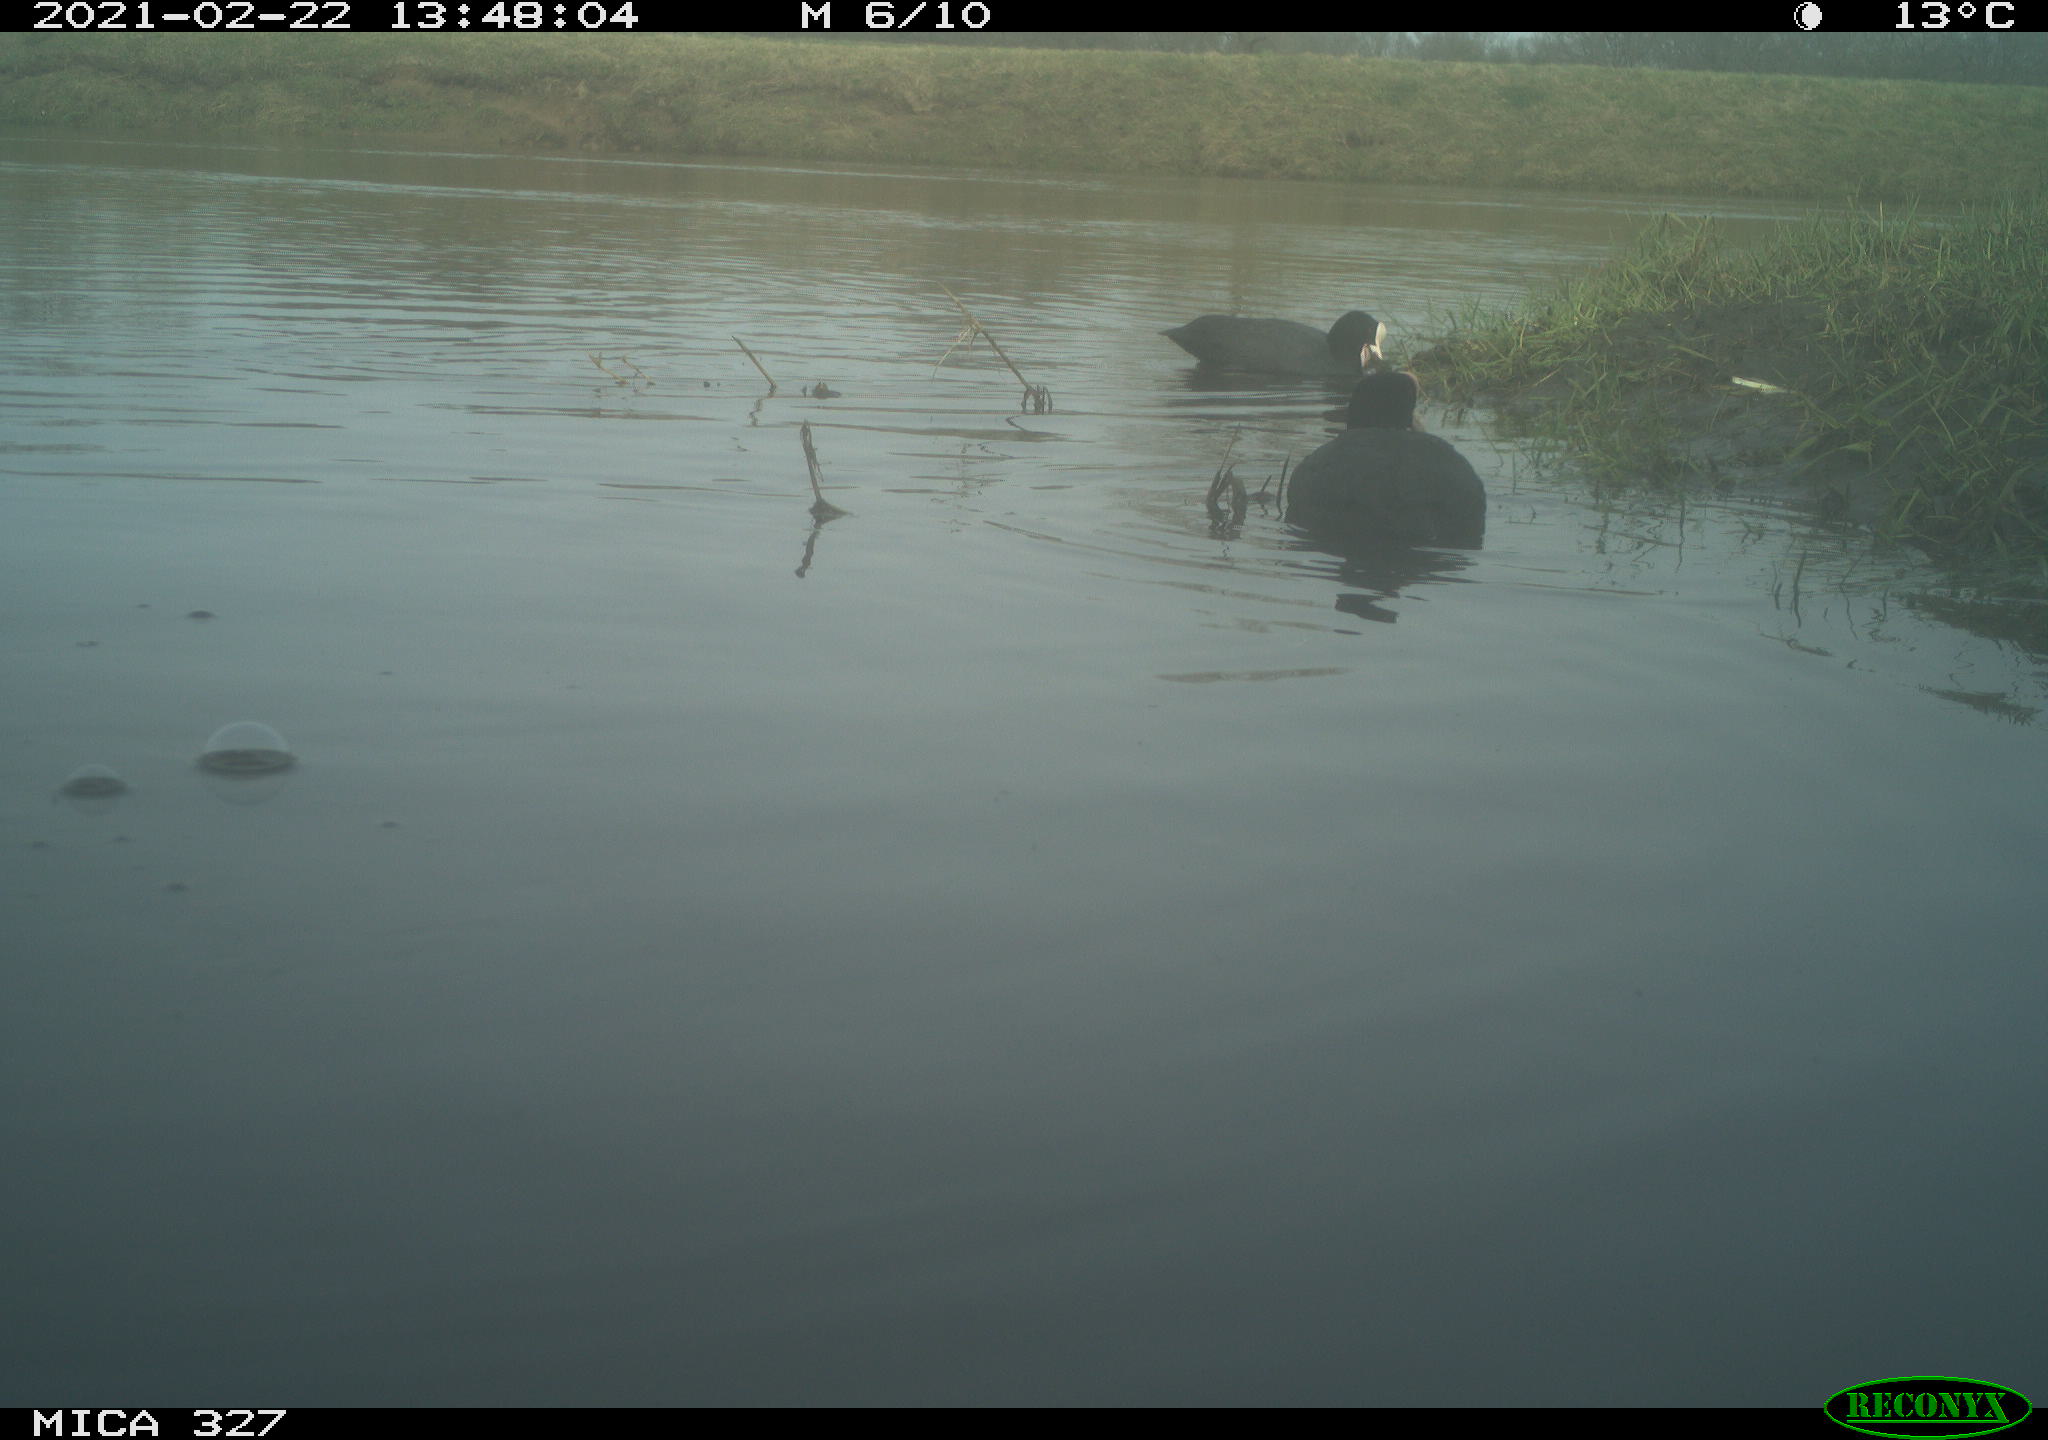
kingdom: Animalia
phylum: Chordata
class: Mammalia
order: Rodentia
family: Cricetidae
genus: Ondatra
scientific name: Ondatra zibethicus
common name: Muskrat
